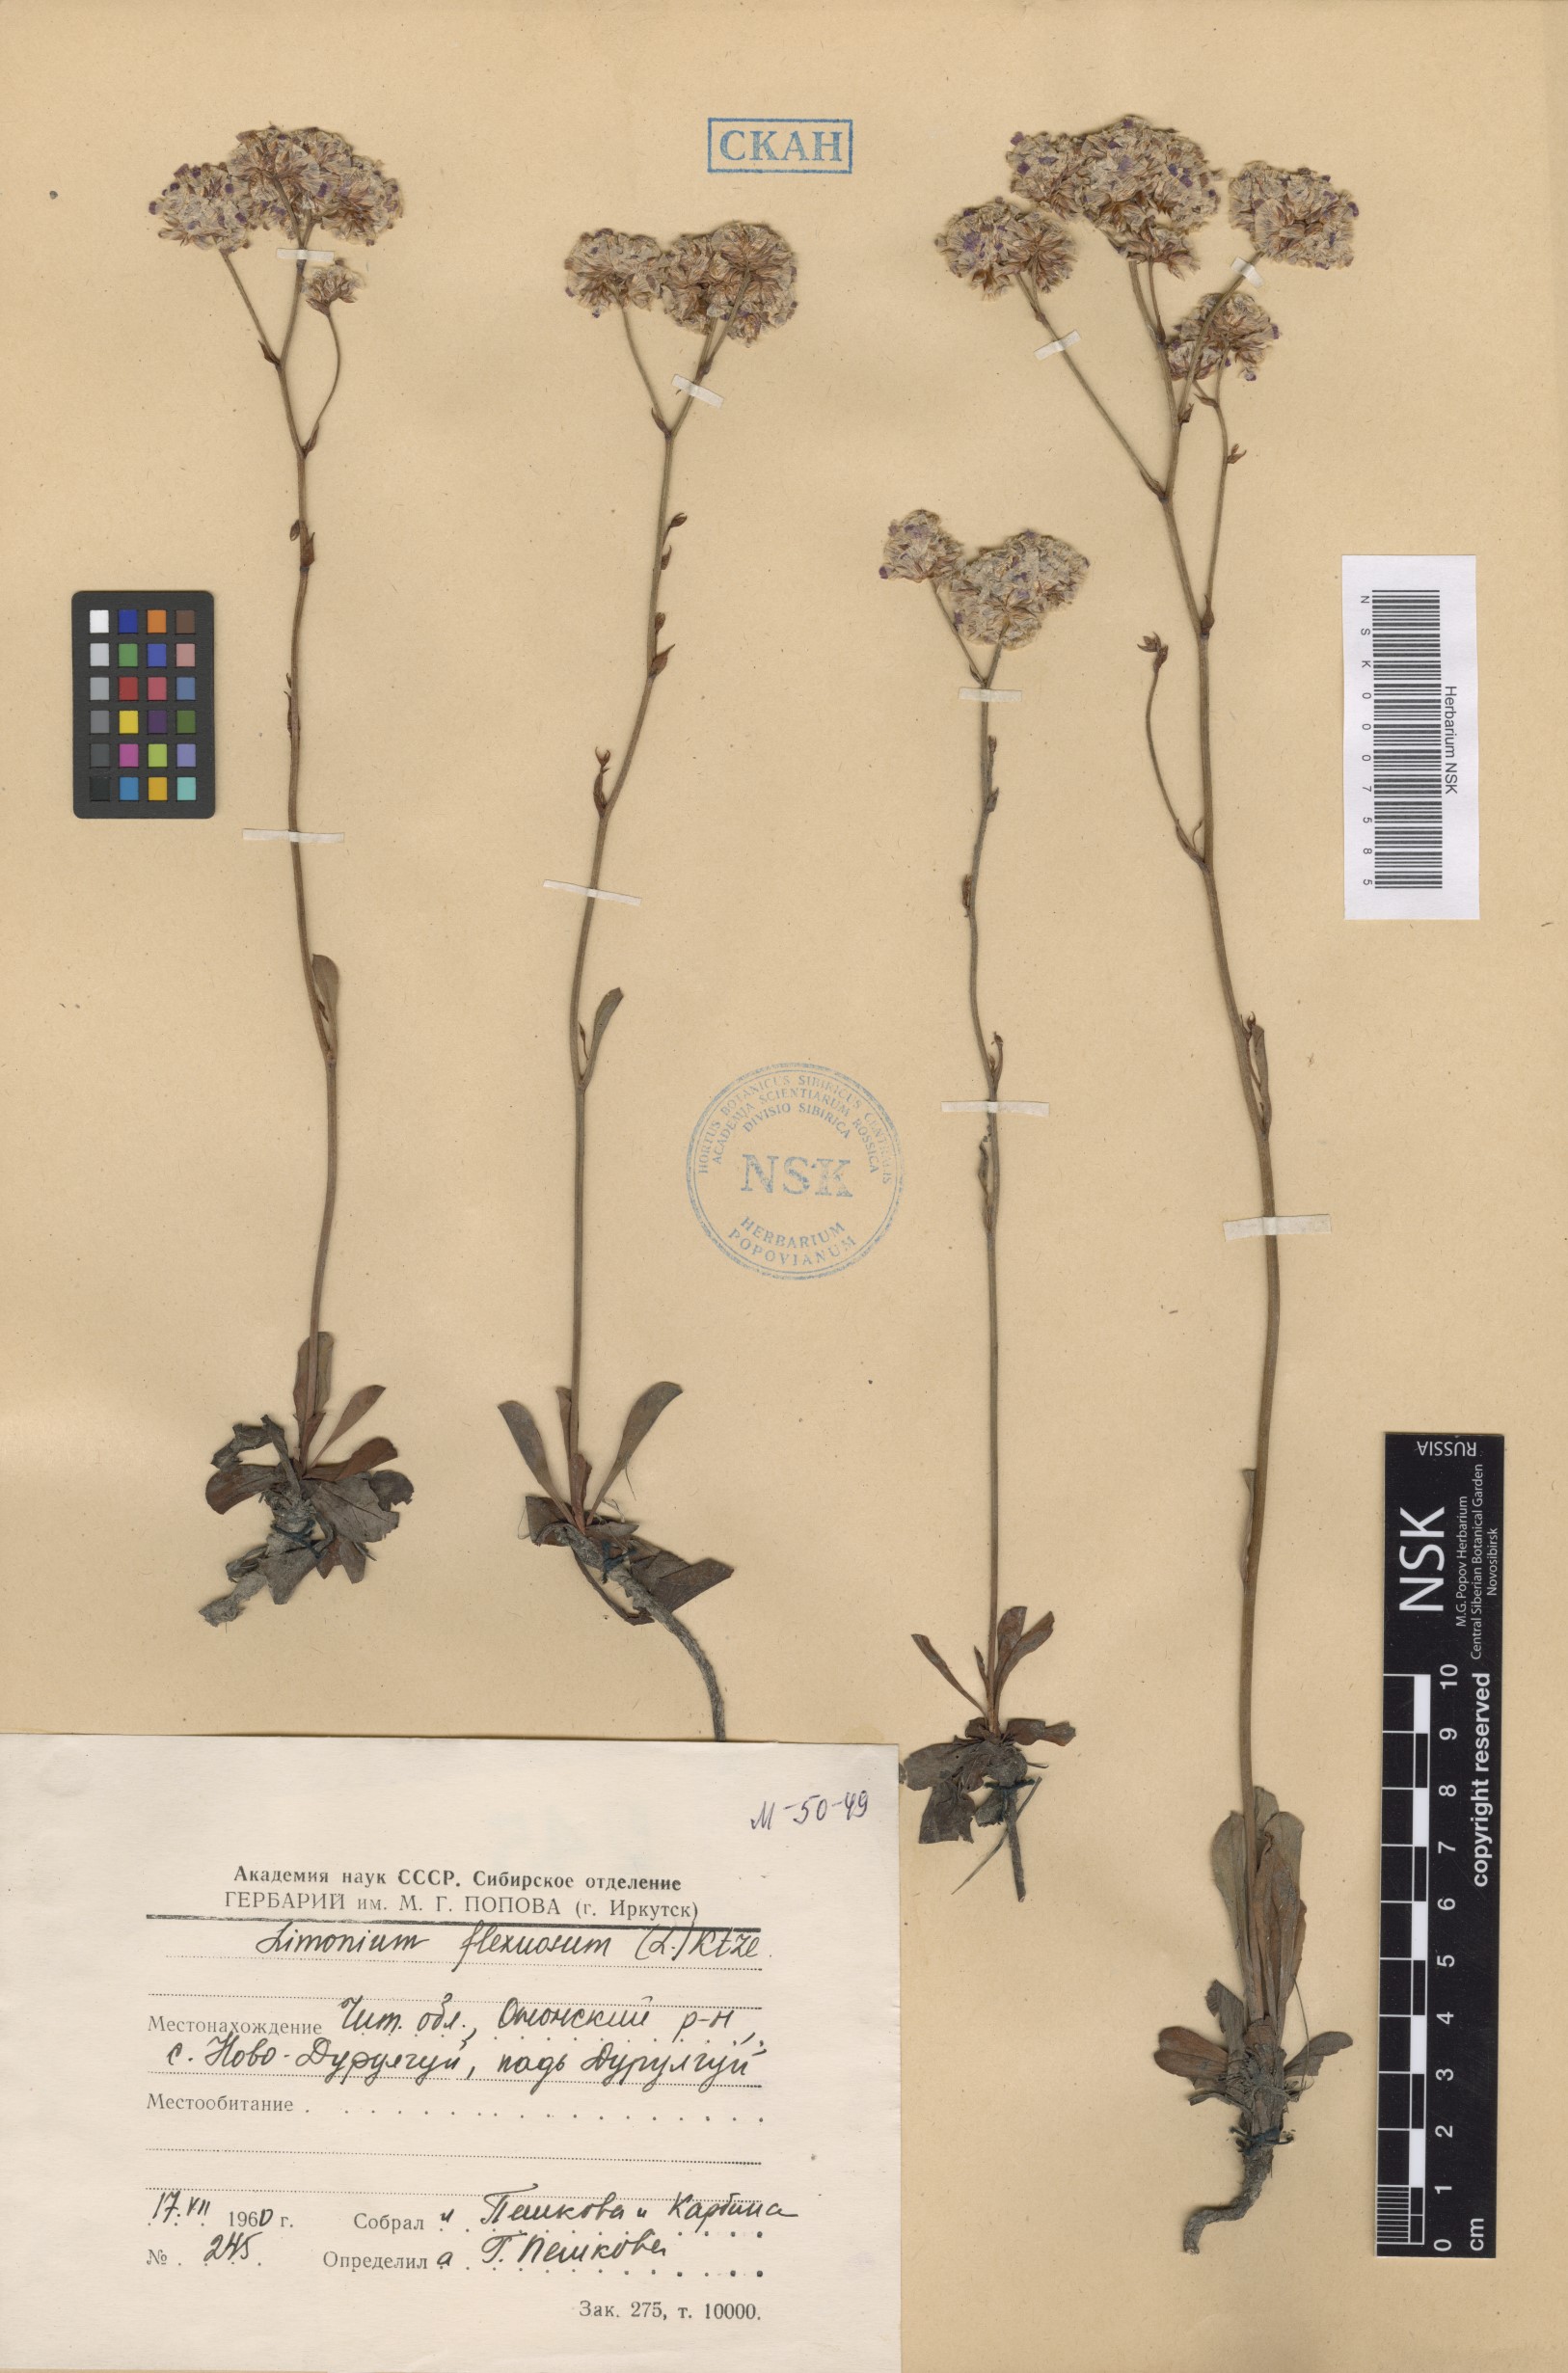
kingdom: Plantae
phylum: Tracheophyta
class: Magnoliopsida
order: Caryophyllales
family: Plumbaginaceae
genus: Limonium
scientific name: Limonium flexuosum
